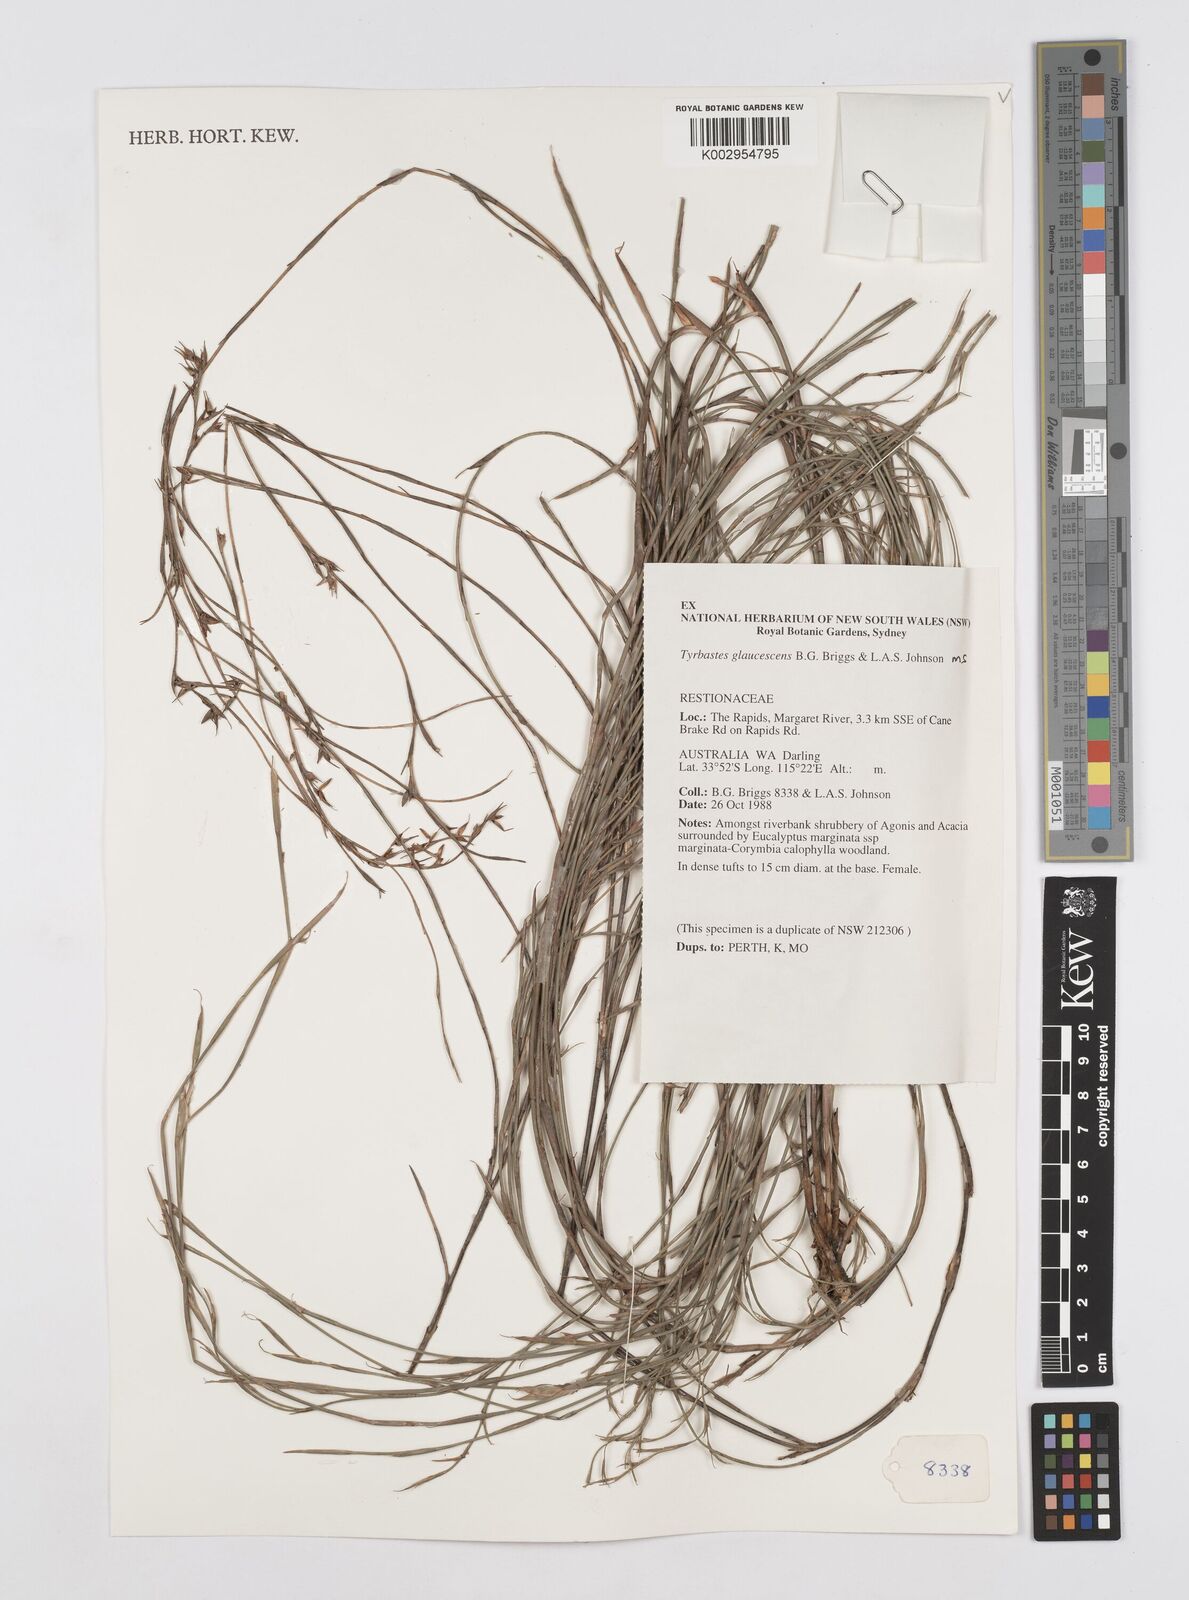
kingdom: Plantae
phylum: Tracheophyta
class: Liliopsida
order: Poales
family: Restionaceae
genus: Tyrbastes
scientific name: Tyrbastes glaucescens
